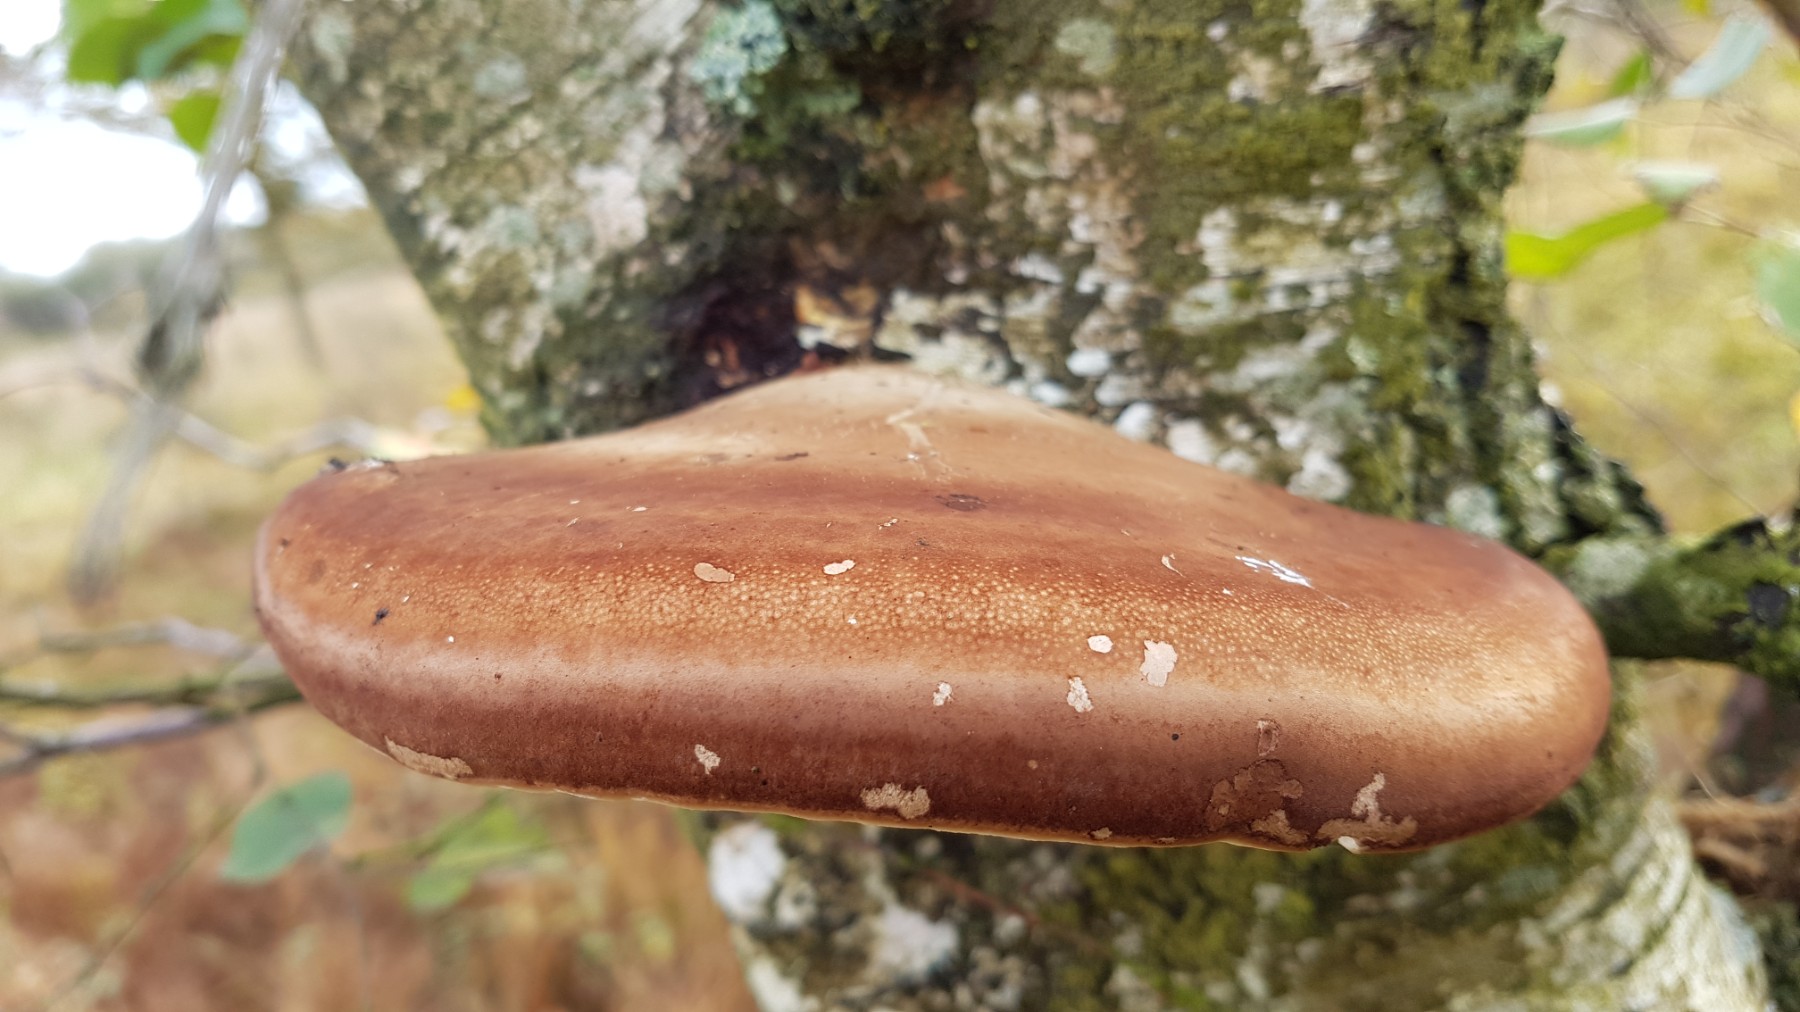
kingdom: Fungi
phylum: Basidiomycota
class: Agaricomycetes
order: Polyporales
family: Fomitopsidaceae
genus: Fomitopsis
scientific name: Fomitopsis betulina
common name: birkeporesvamp
